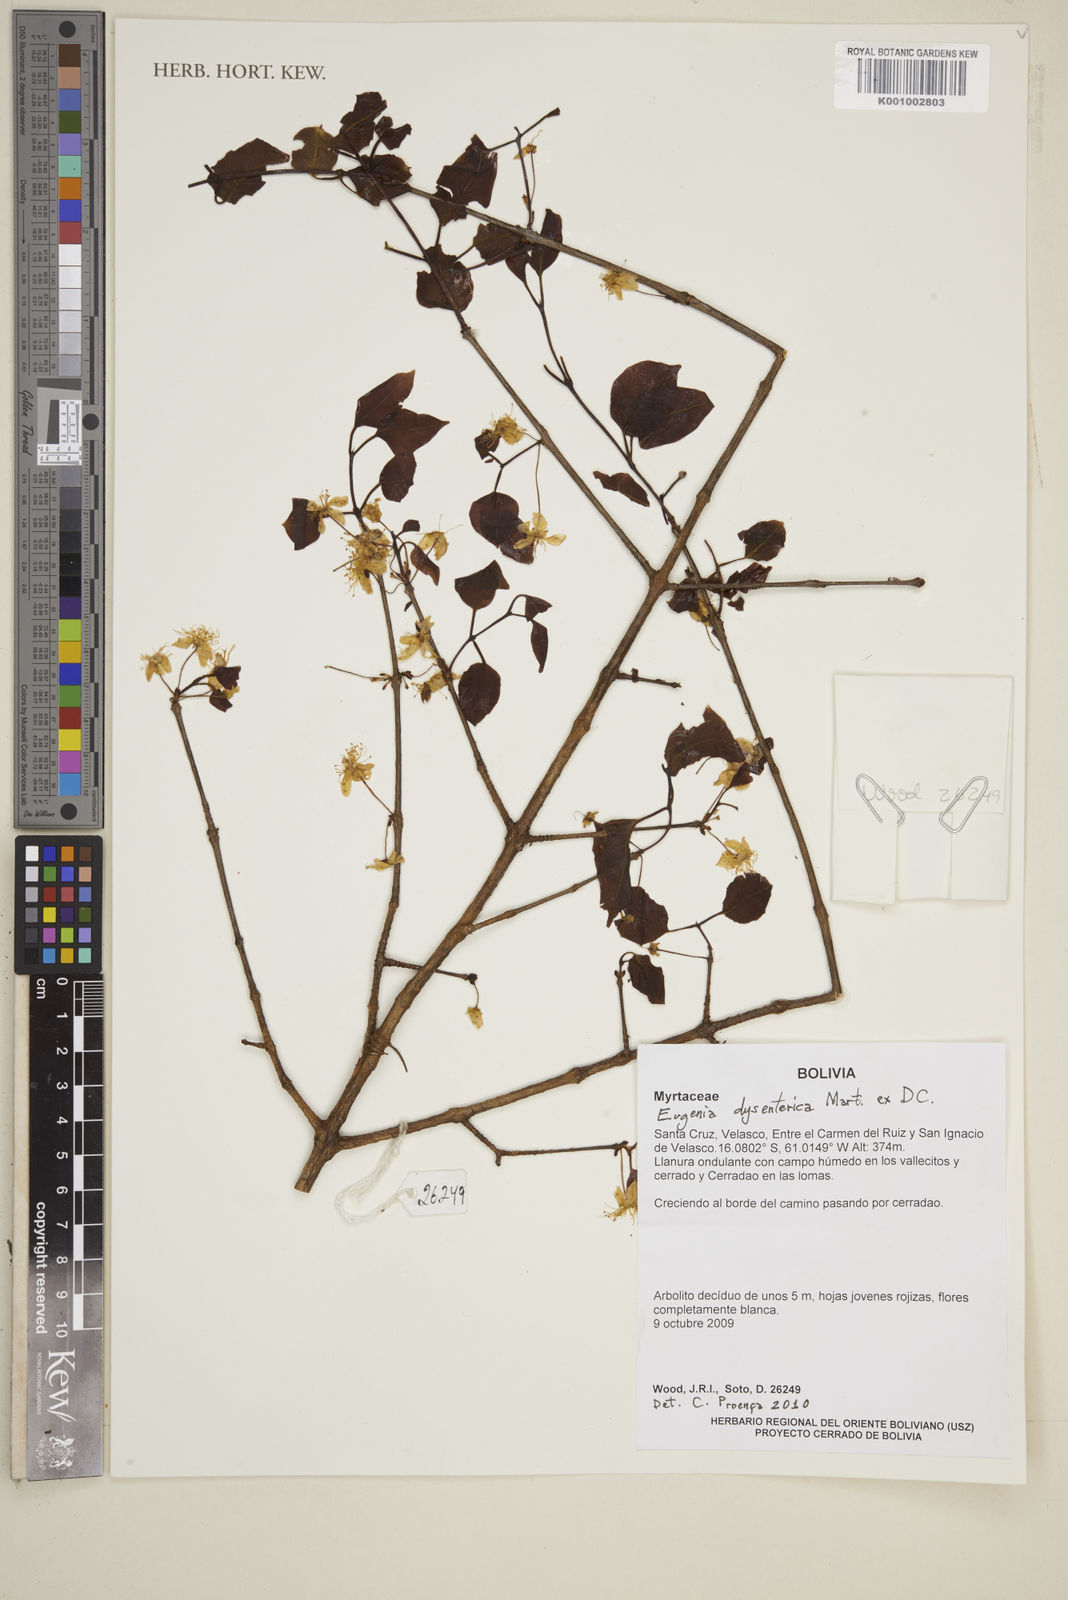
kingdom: Plantae
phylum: Tracheophyta
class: Magnoliopsida
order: Myrtales
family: Myrtaceae
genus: Eugenia
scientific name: Eugenia dysenterica
